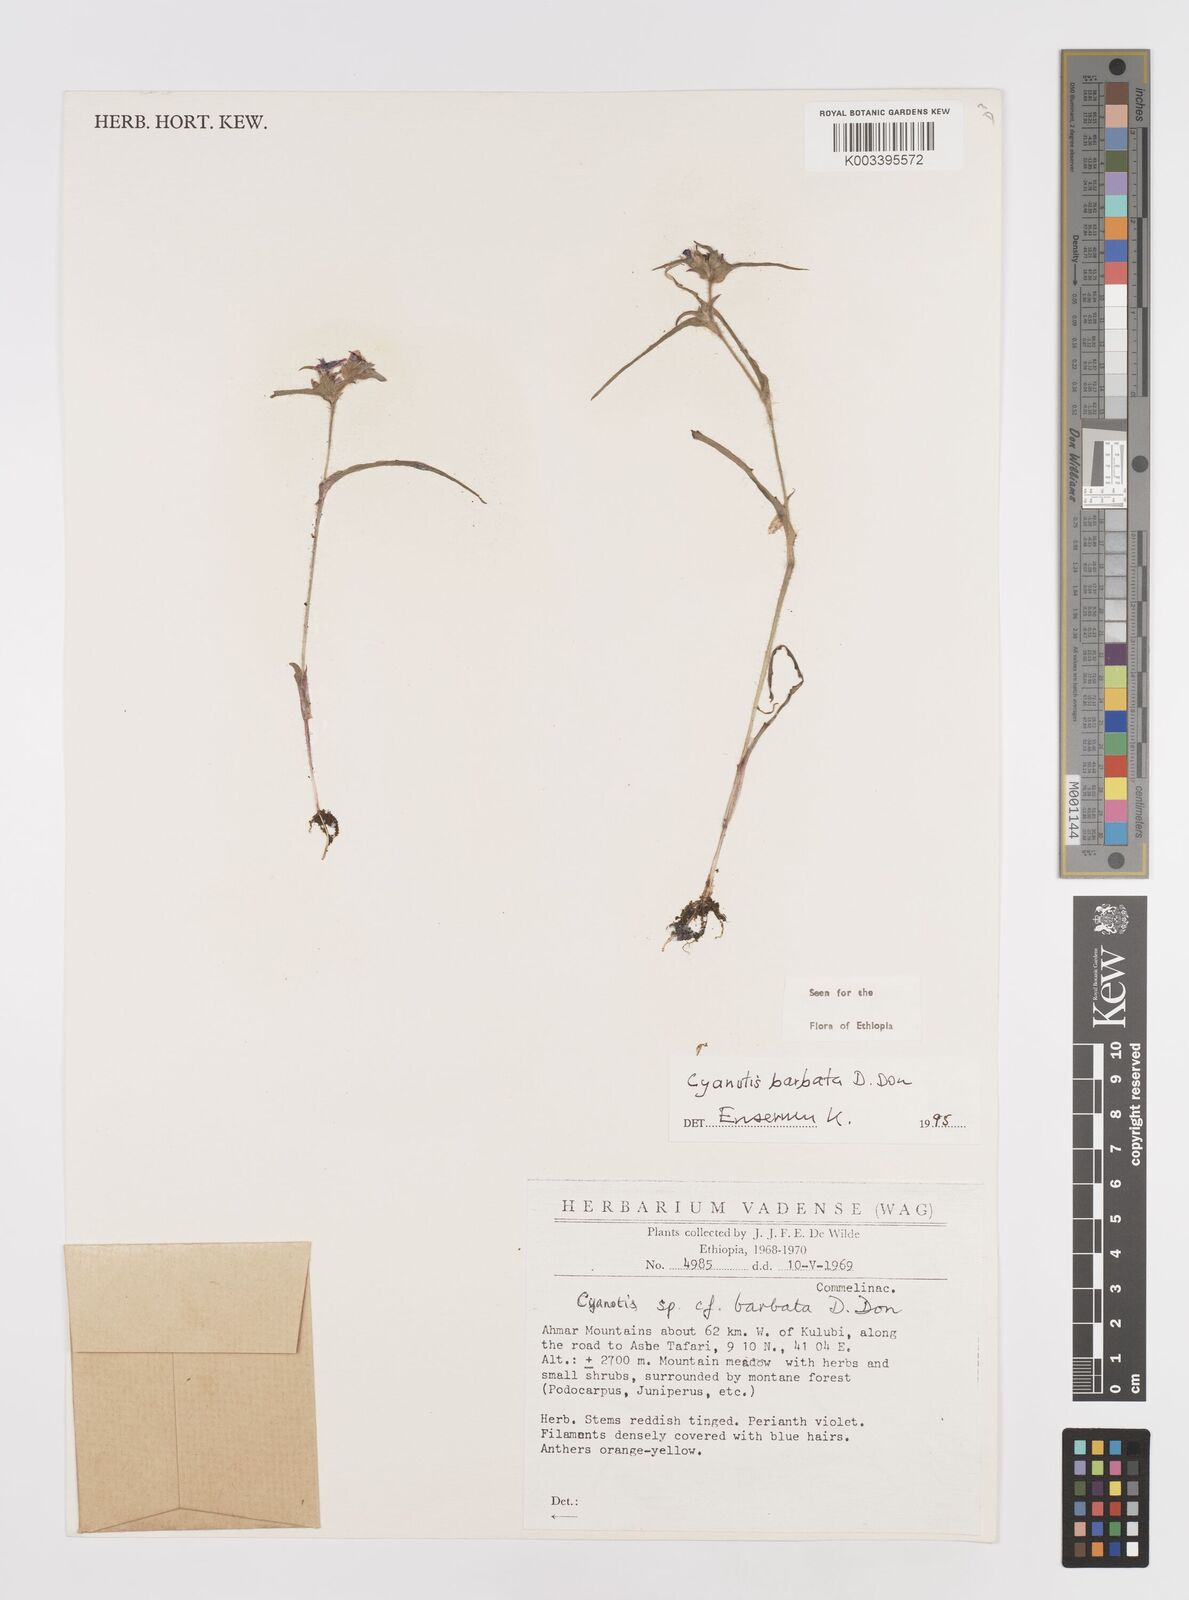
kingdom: Plantae
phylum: Tracheophyta
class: Liliopsida
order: Commelinales
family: Commelinaceae
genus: Cyanotis
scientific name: Cyanotis vaga
